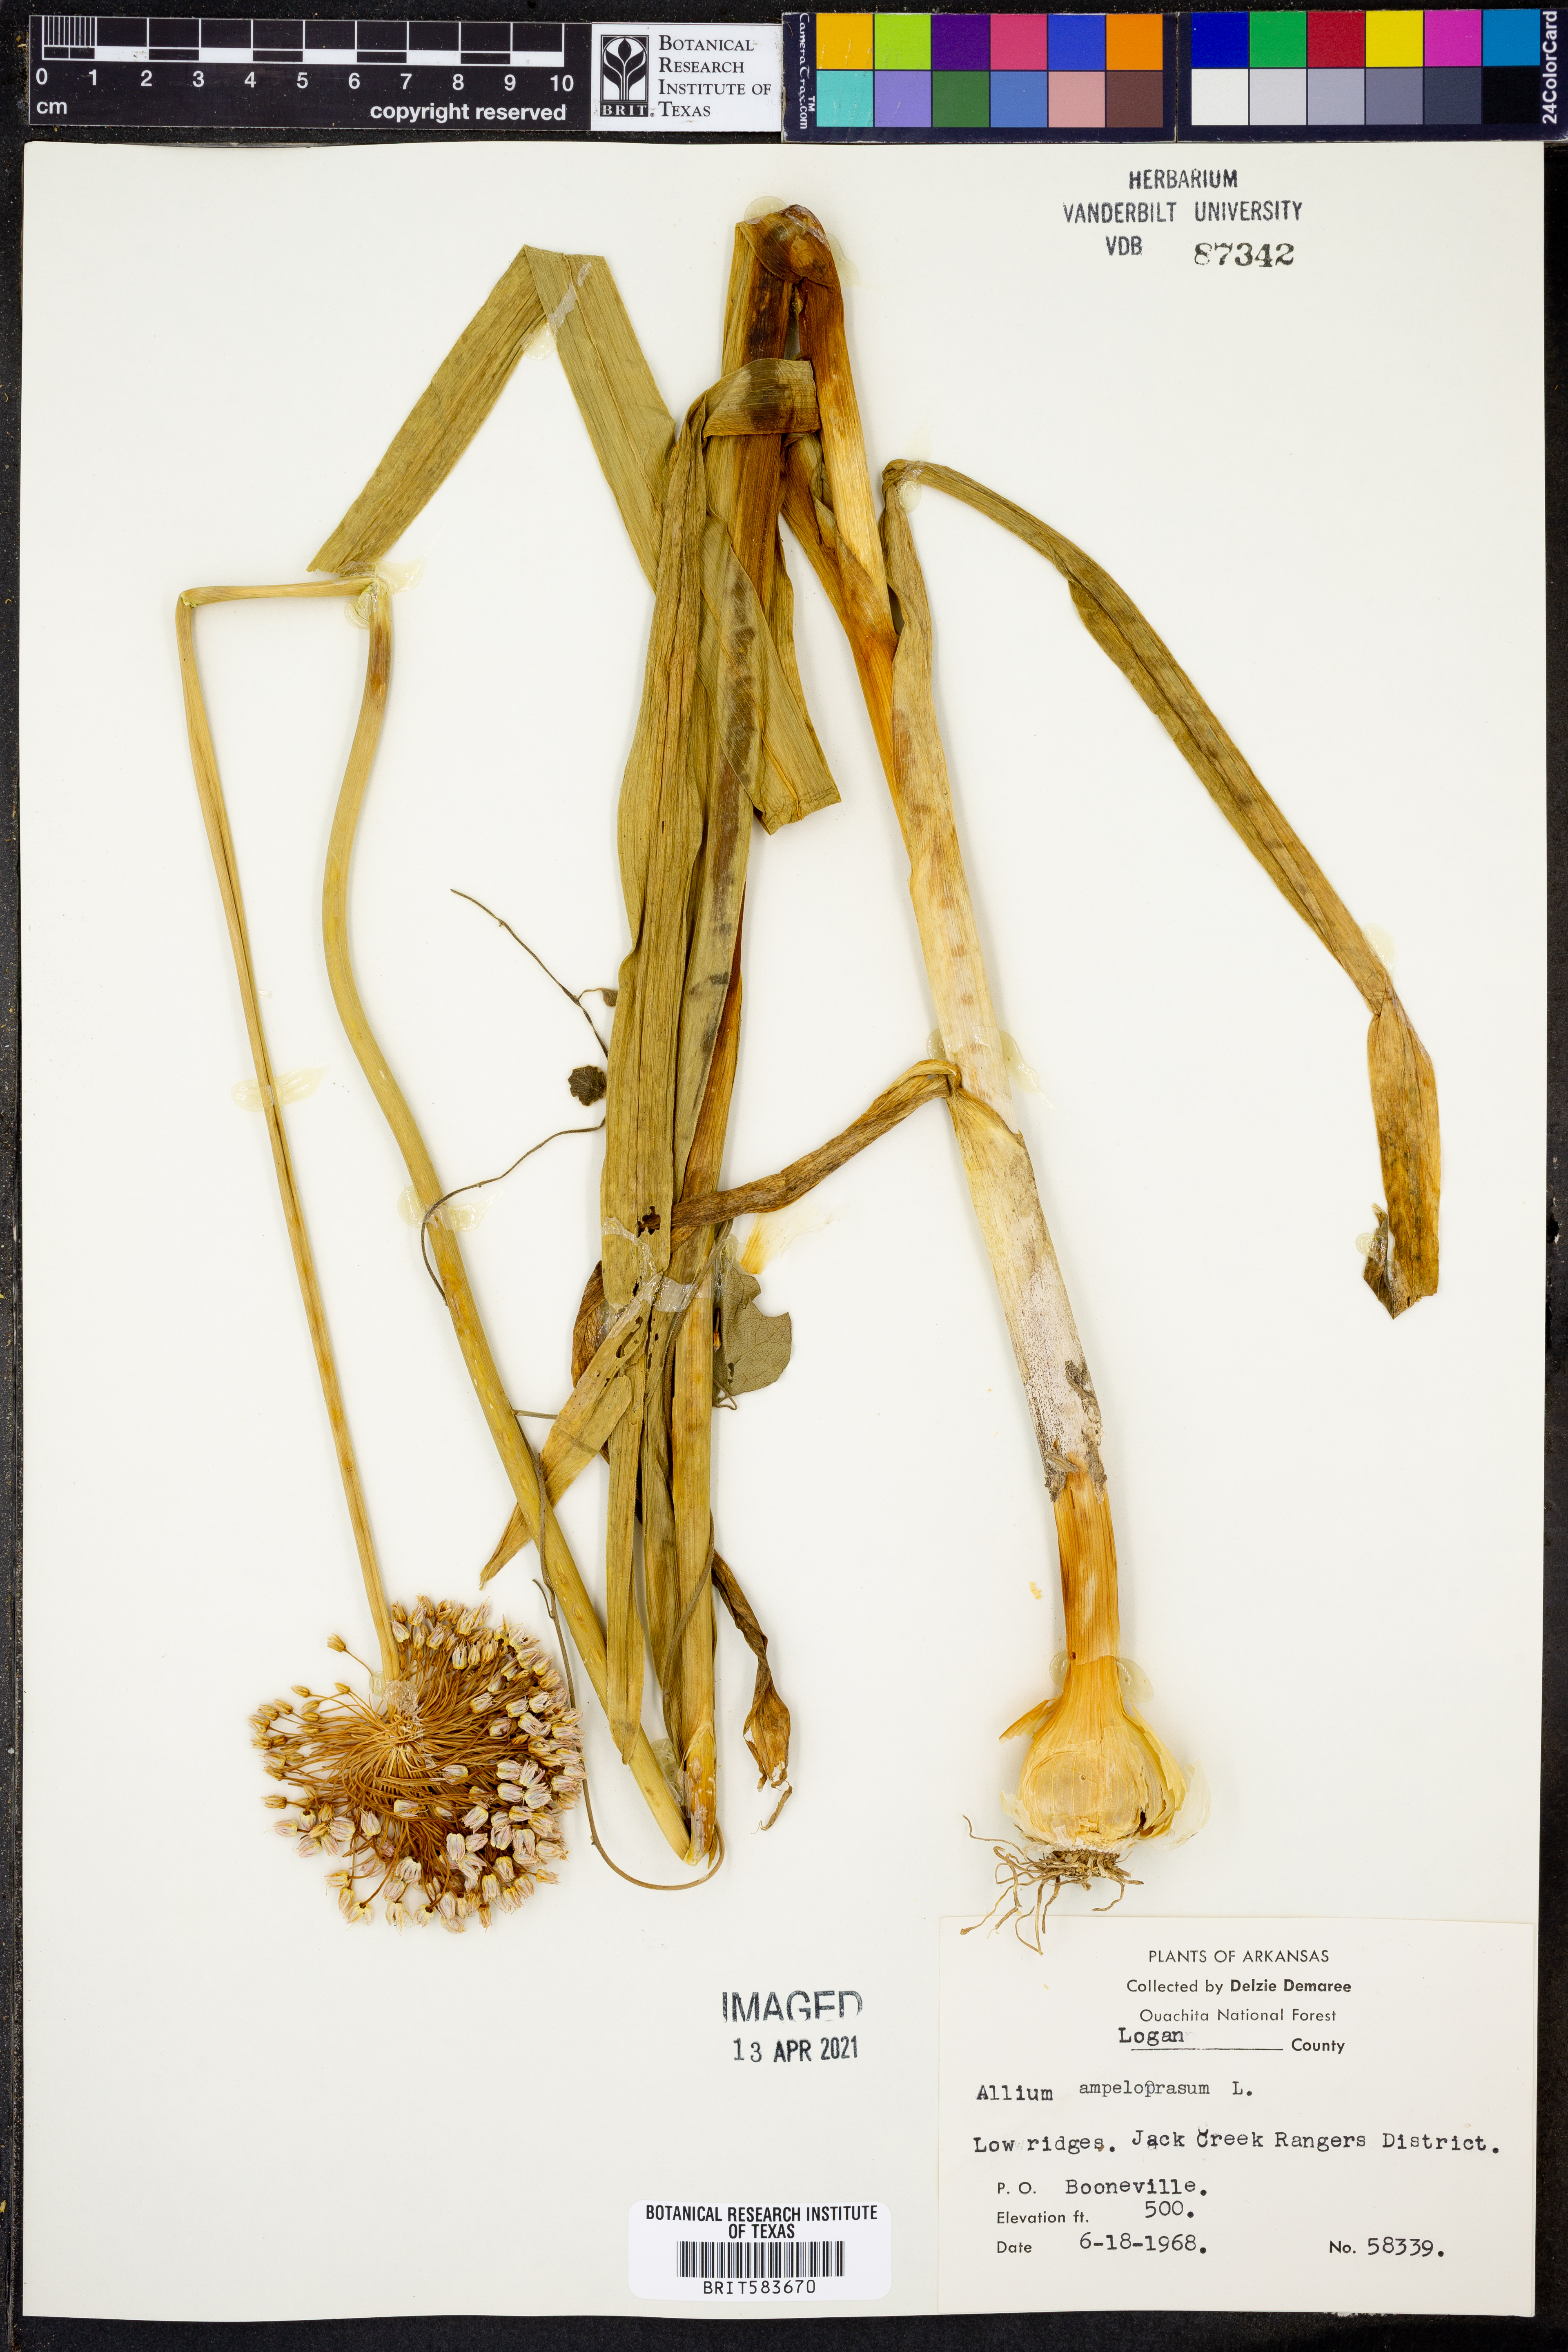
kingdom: Plantae
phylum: Tracheophyta
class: Liliopsida
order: Asparagales
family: Amaryllidaceae
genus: Allium
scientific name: Allium ampeloprasum
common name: Wild leek
